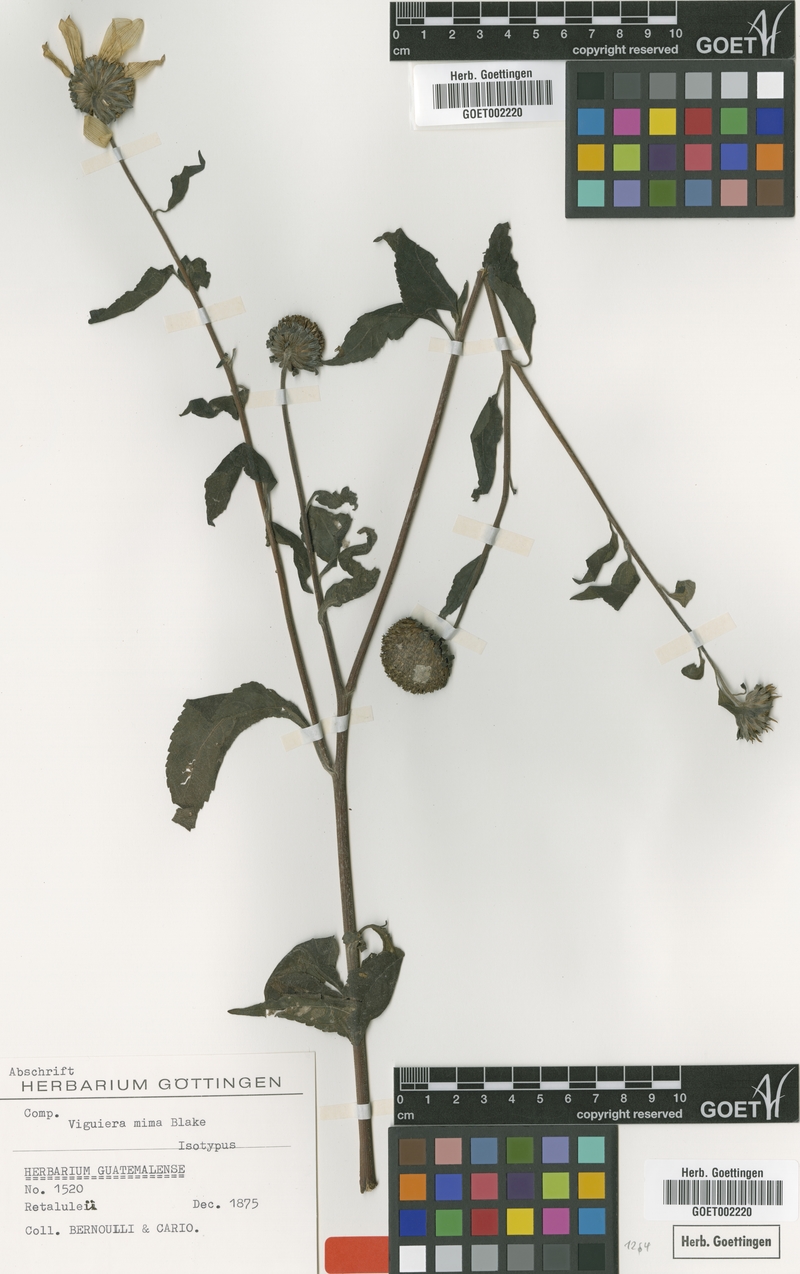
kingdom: Plantae
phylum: Tracheophyta
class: Magnoliopsida
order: Asterales
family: Asteraceae
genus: Viguiera
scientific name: Viguiera mima
